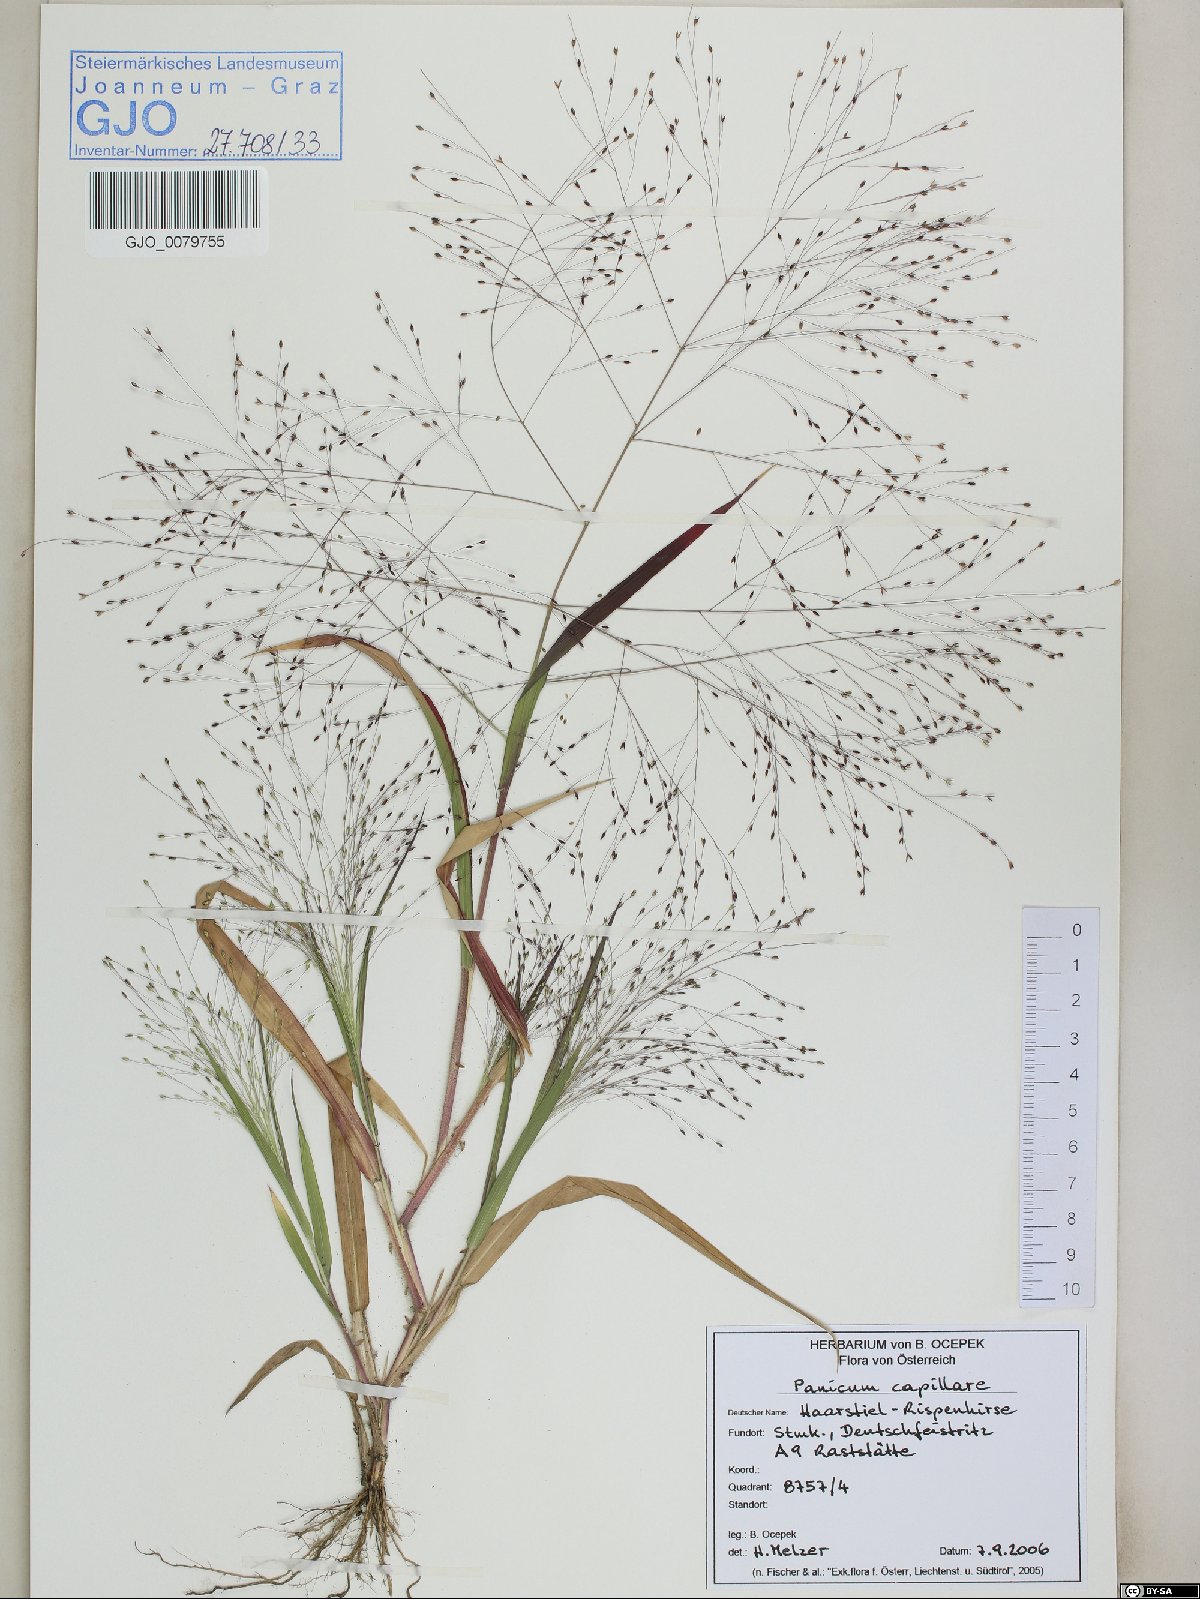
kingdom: Plantae
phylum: Tracheophyta
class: Liliopsida
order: Poales
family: Poaceae
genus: Panicum
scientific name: Panicum capillare
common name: Witch-grass
